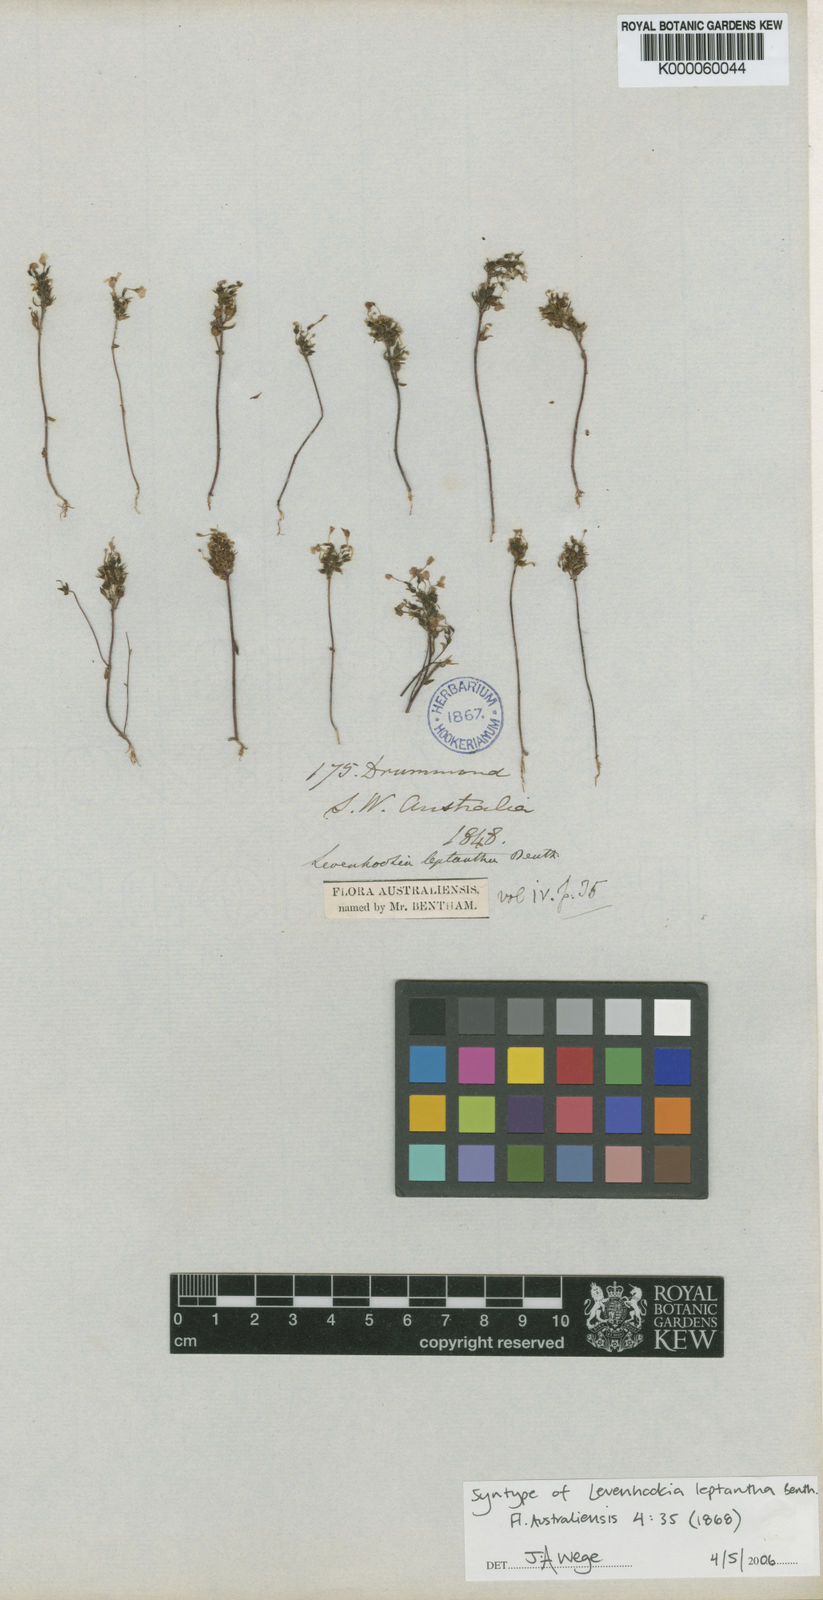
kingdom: Plantae
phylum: Tracheophyta
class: Magnoliopsida
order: Asterales
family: Stylidiaceae
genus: Levenhookia
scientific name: Levenhookia leptantha
